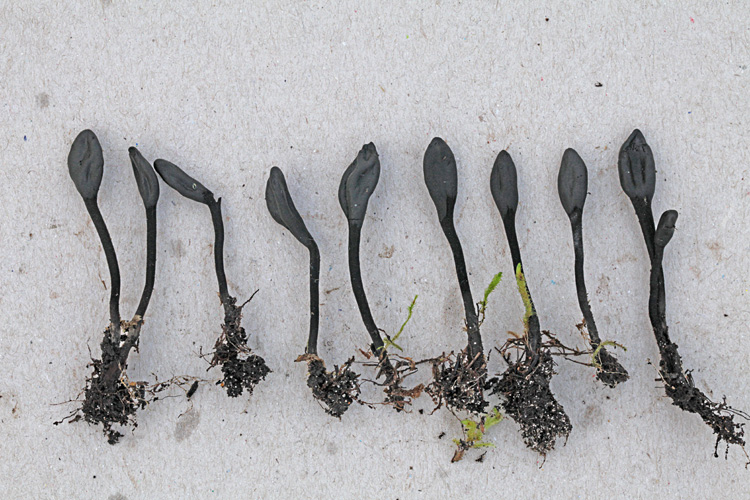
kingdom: Fungi
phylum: Ascomycota
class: Geoglossomycetes
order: Geoglossales
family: Geoglossaceae
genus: Trichoglossum
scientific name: Trichoglossum variabile
